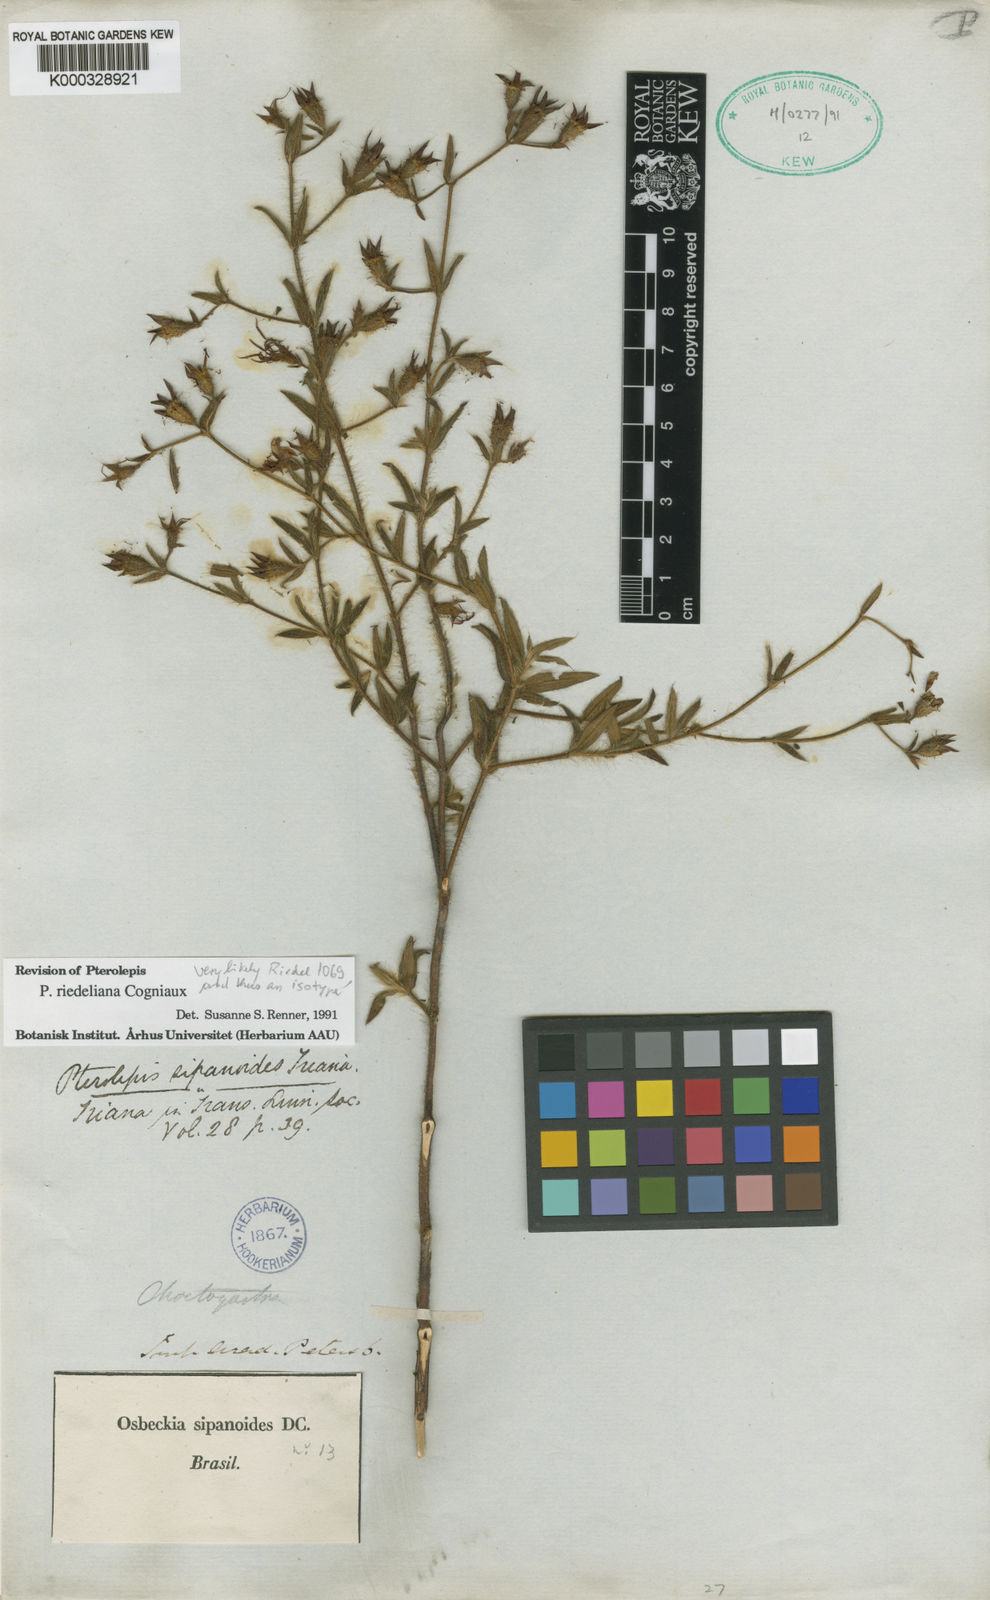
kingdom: Plantae
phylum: Tracheophyta
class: Magnoliopsida
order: Myrtales
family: Melastomataceae
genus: Pterolepis
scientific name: Pterolepis riedeliana
